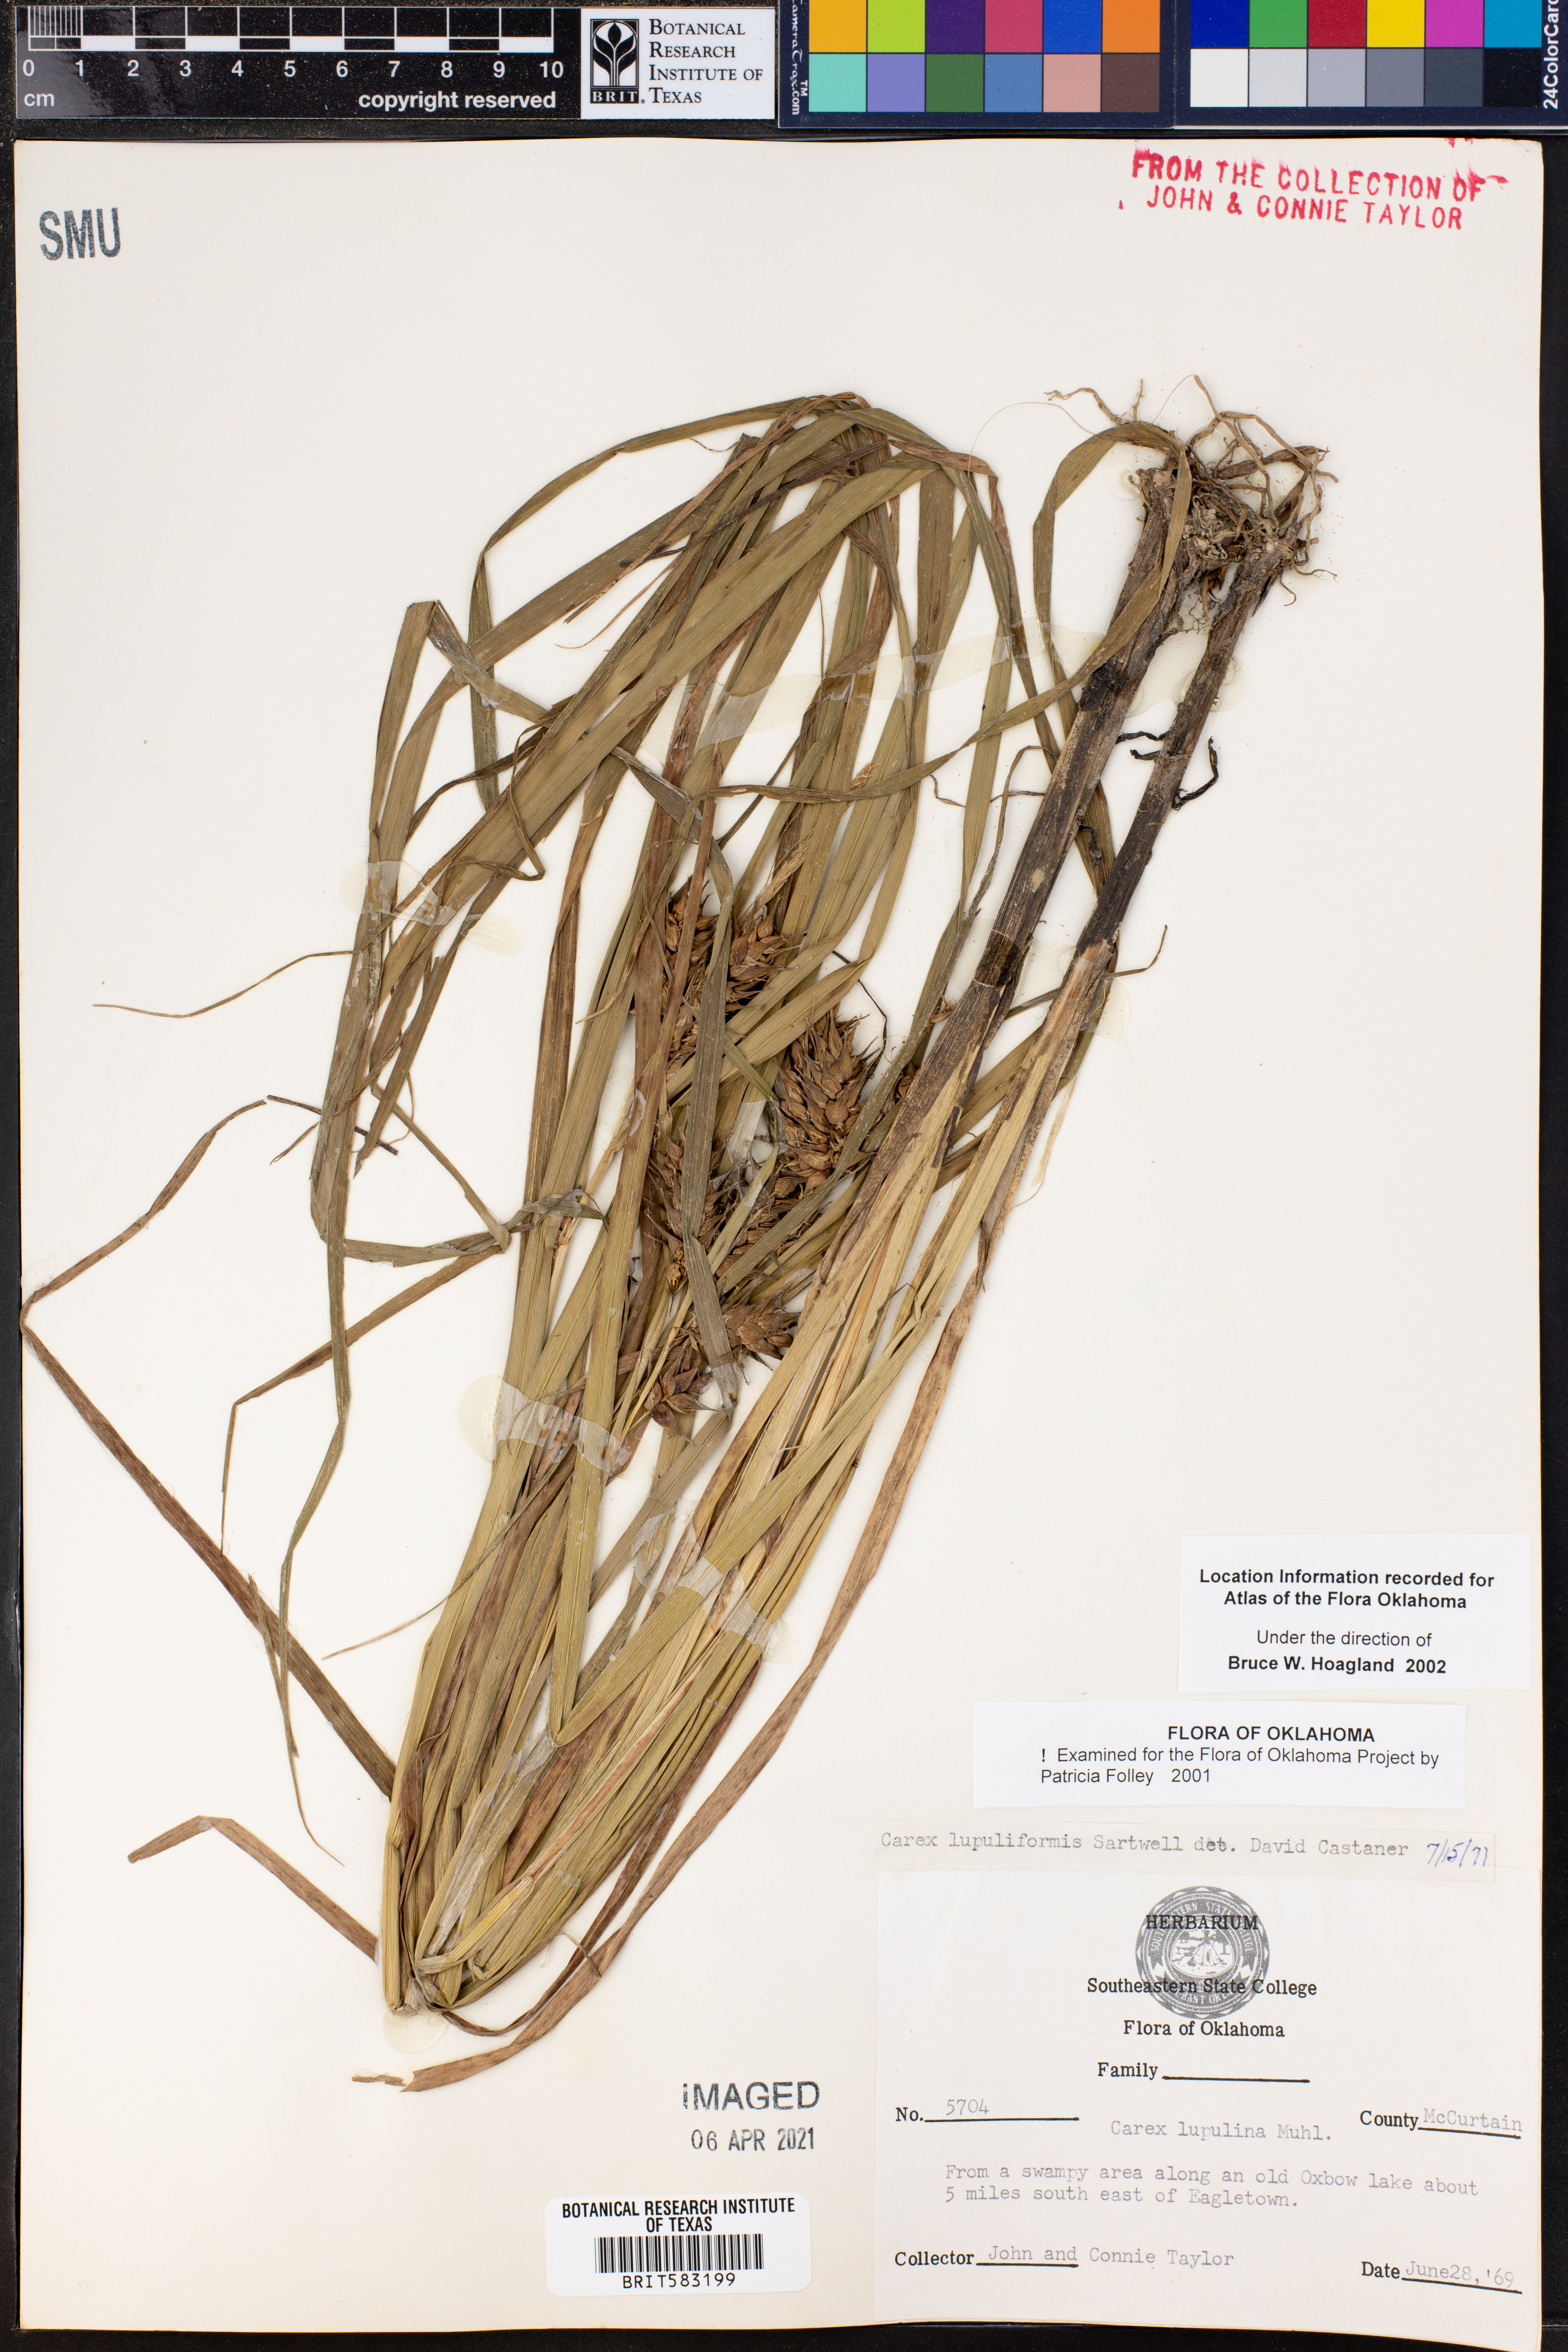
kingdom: Plantae
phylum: Tracheophyta
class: Liliopsida
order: Poales
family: Cyperaceae
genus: Carex
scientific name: Carex lupuliformis
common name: False hop sedge
